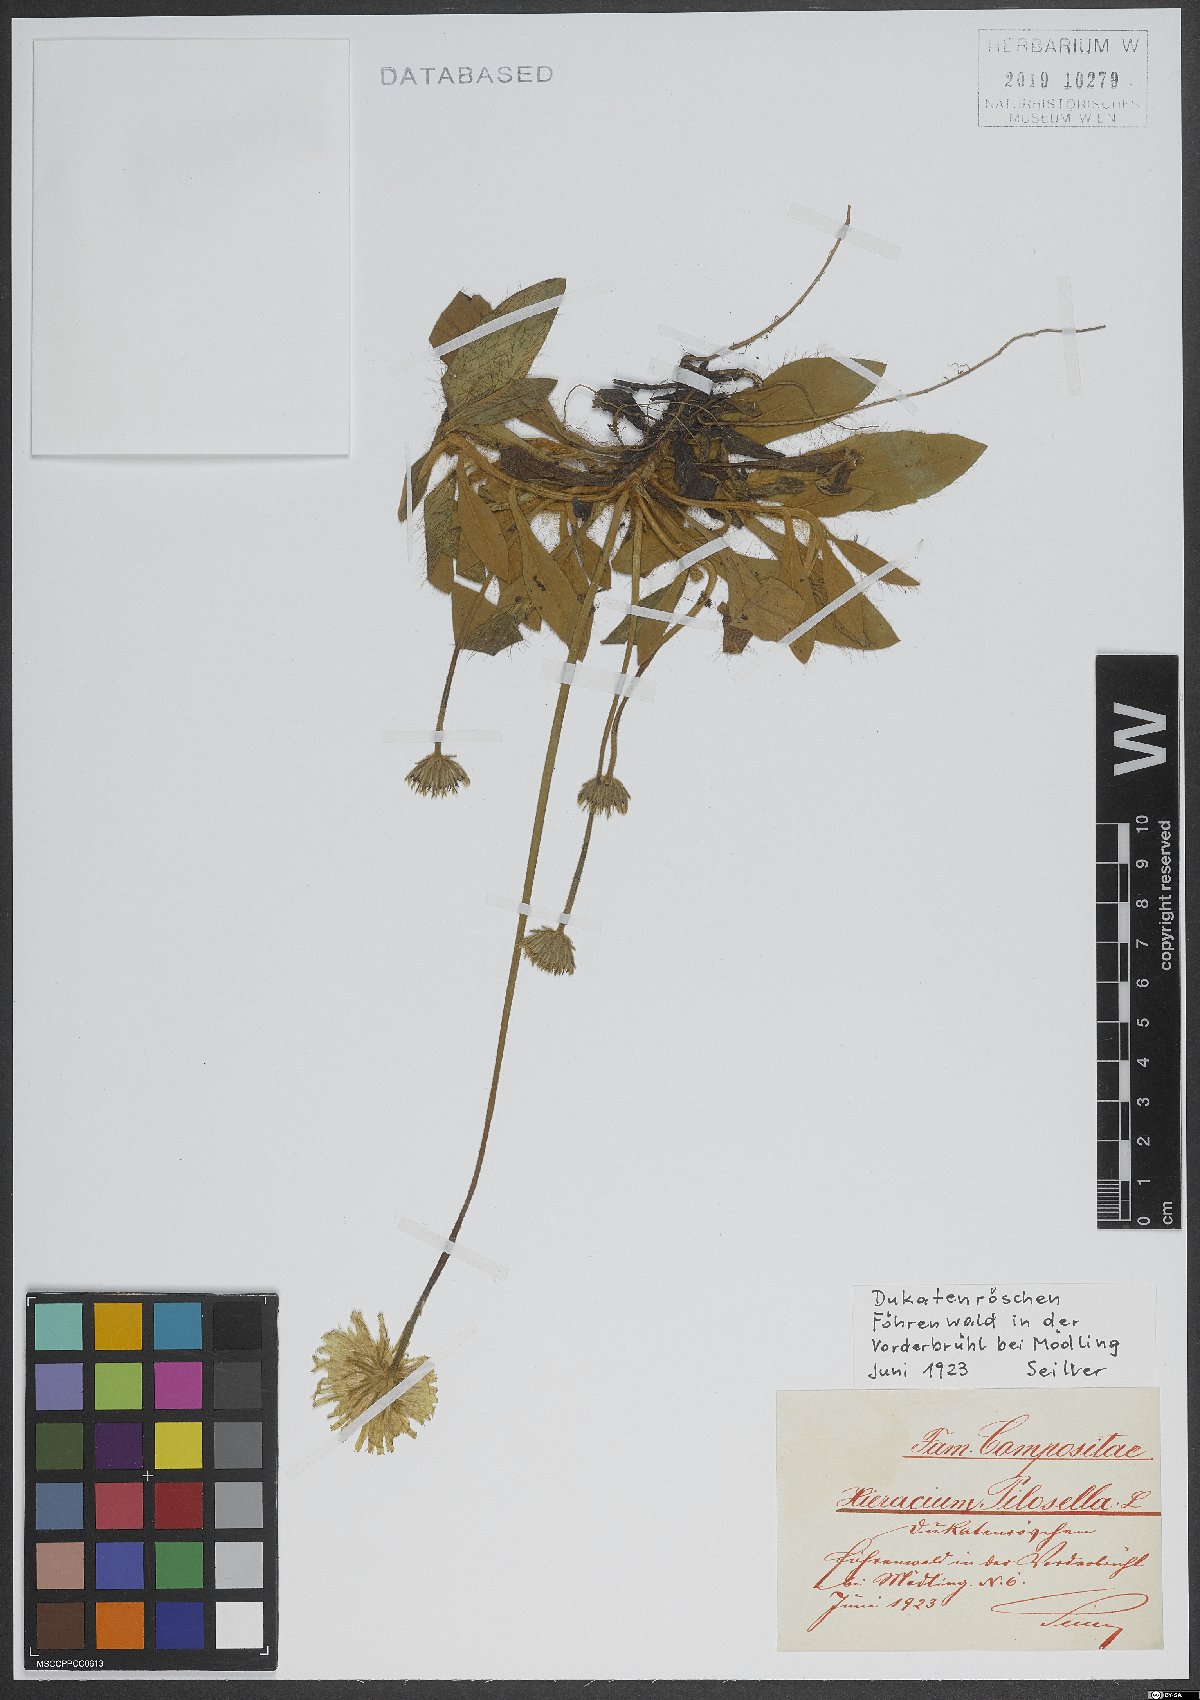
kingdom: Plantae
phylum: Tracheophyta
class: Magnoliopsida
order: Asterales
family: Asteraceae
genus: Pilosella
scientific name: Pilosella officinarum
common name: Mouse-ear hawkweed
